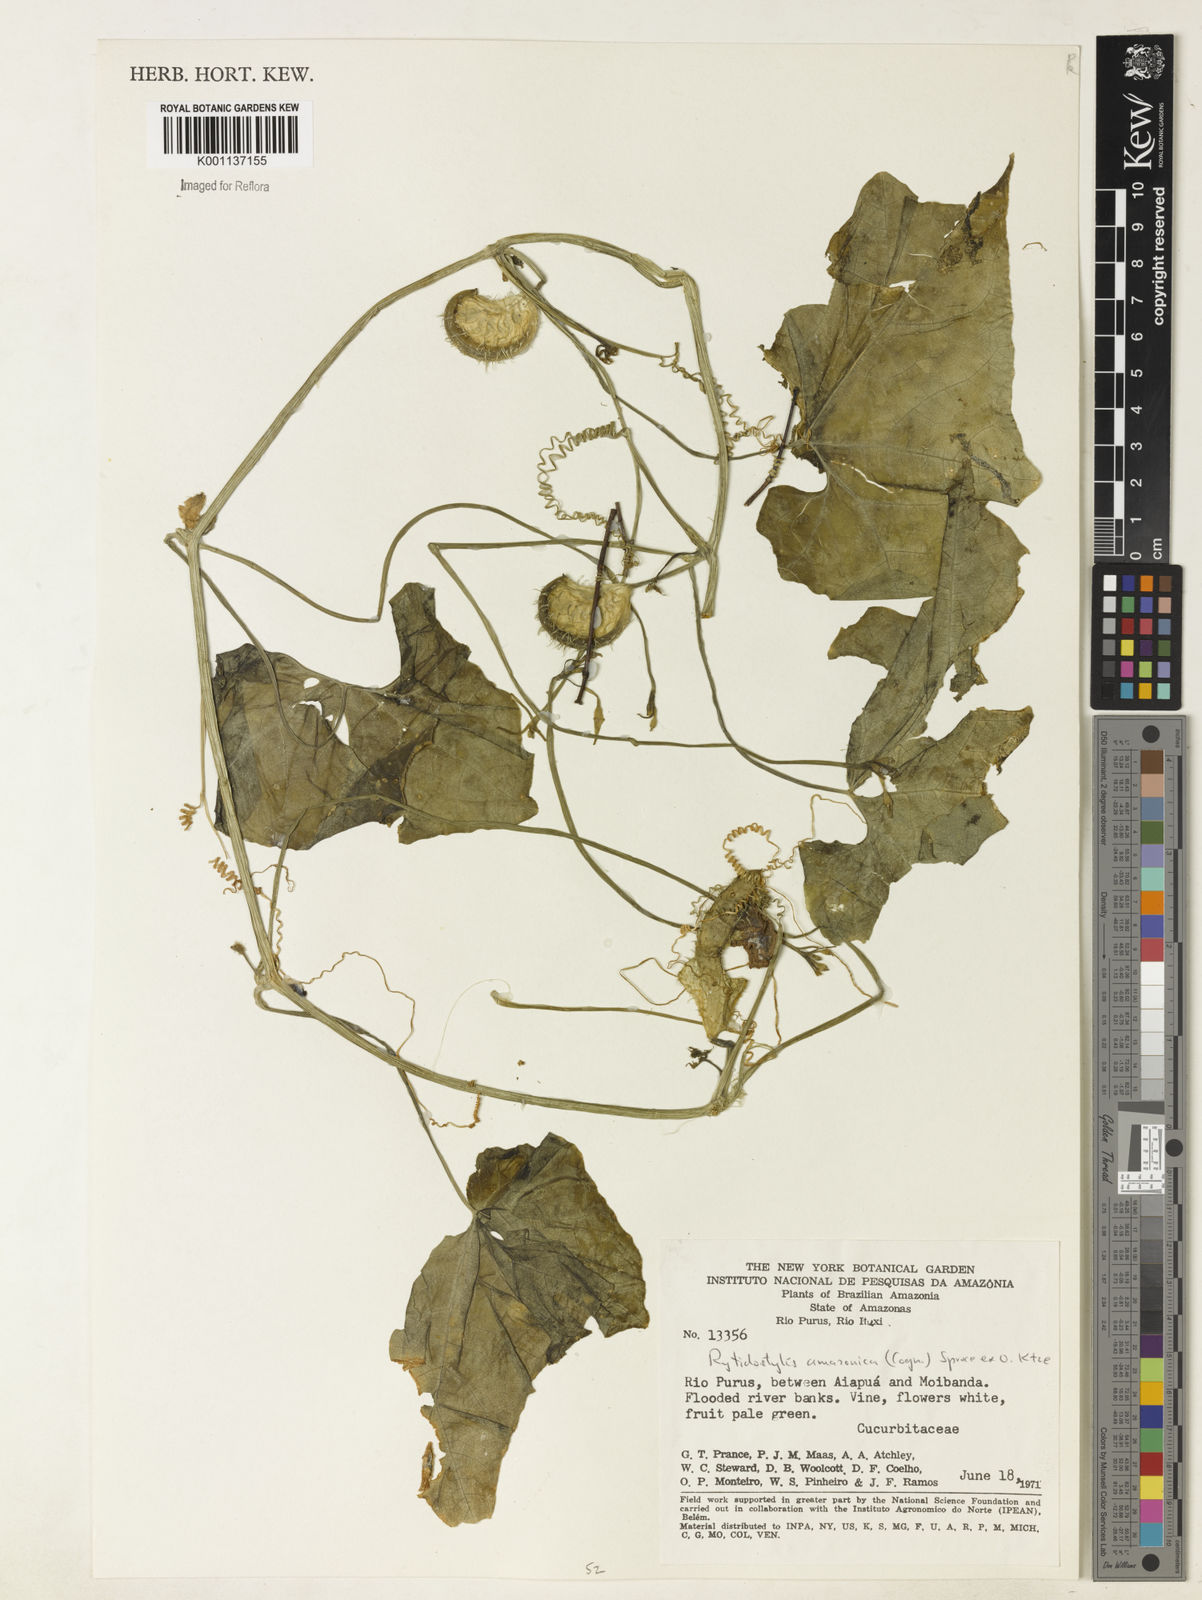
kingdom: Plantae
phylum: Tracheophyta
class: Magnoliopsida
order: Cucurbitales
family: Cucurbitaceae
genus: Cyclanthera
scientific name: Cyclanthera carthagenensis
